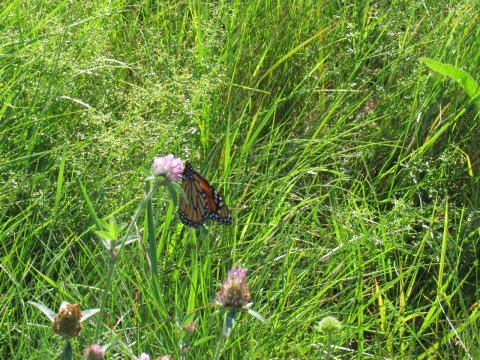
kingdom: Animalia
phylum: Arthropoda
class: Insecta
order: Lepidoptera
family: Nymphalidae
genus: Danaus
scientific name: Danaus plexippus
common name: Monarch
